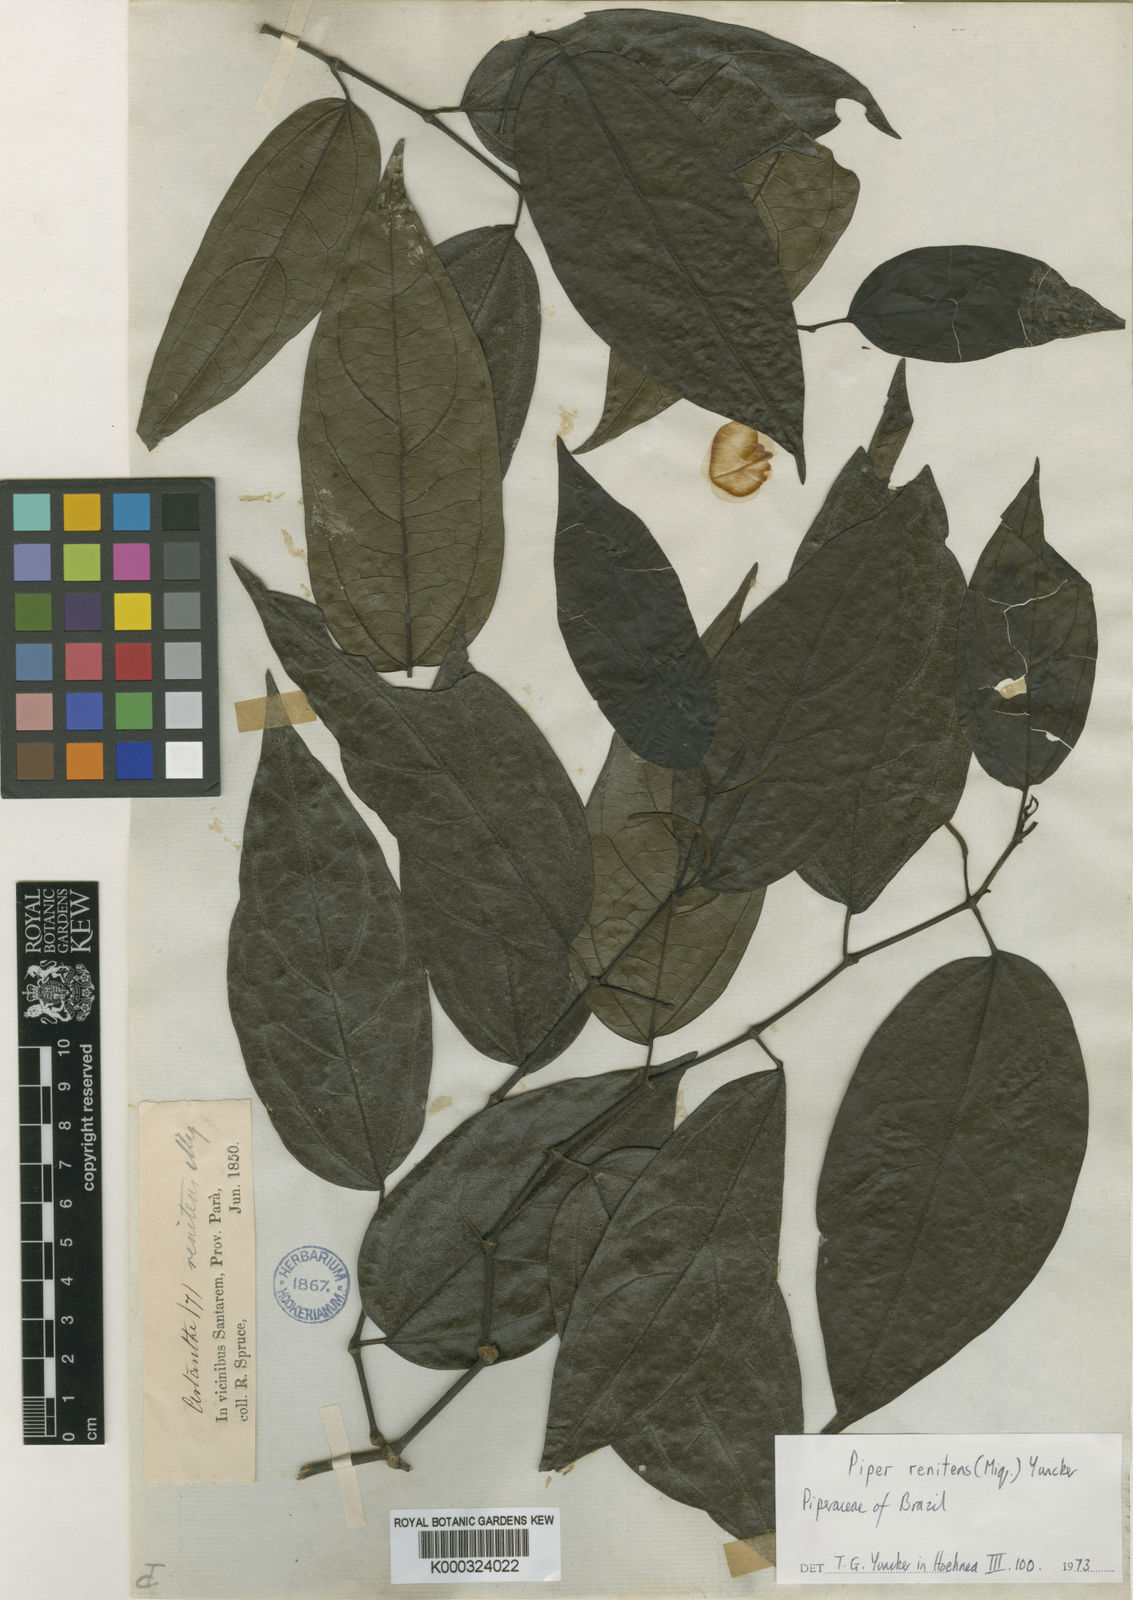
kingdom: Plantae
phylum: Tracheophyta
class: Magnoliopsida
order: Piperales
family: Piperaceae
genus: Piper
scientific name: Piper renitens
